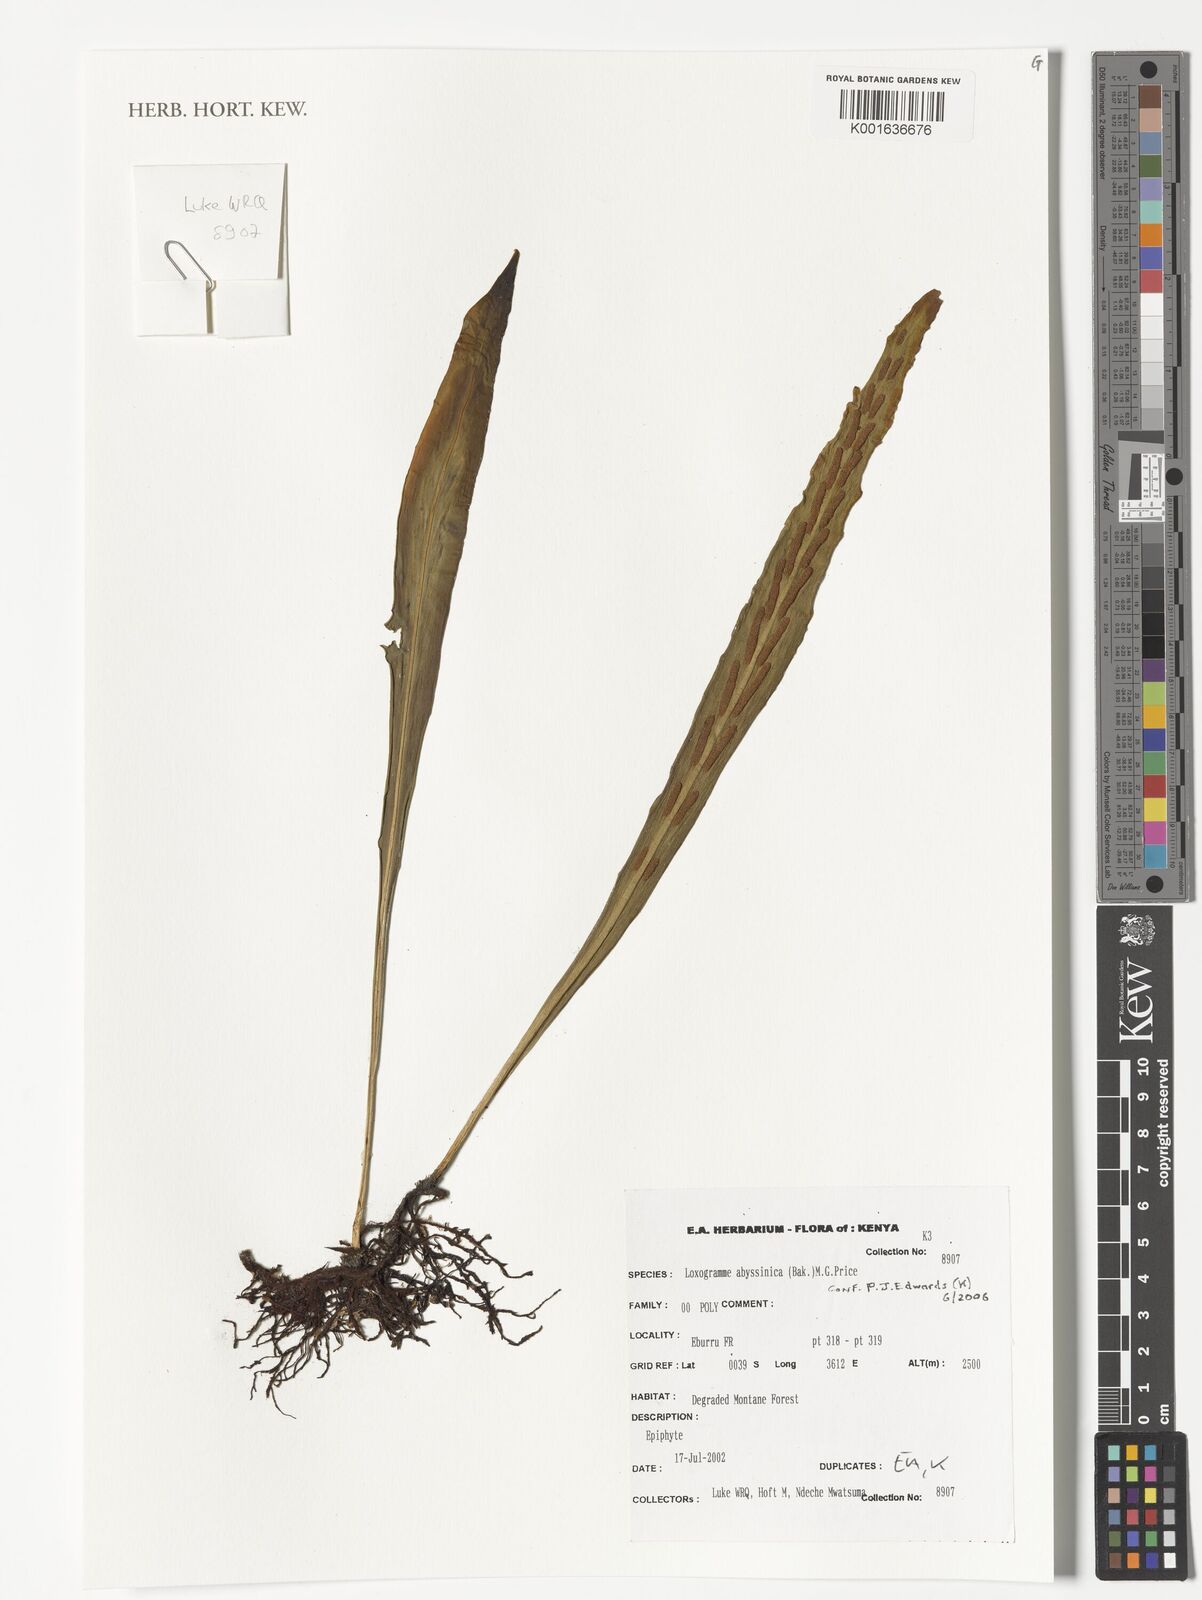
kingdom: Plantae
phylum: Tracheophyta
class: Polypodiopsida
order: Polypodiales
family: Polypodiaceae
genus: Loxogramme
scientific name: Loxogramme abyssinica
